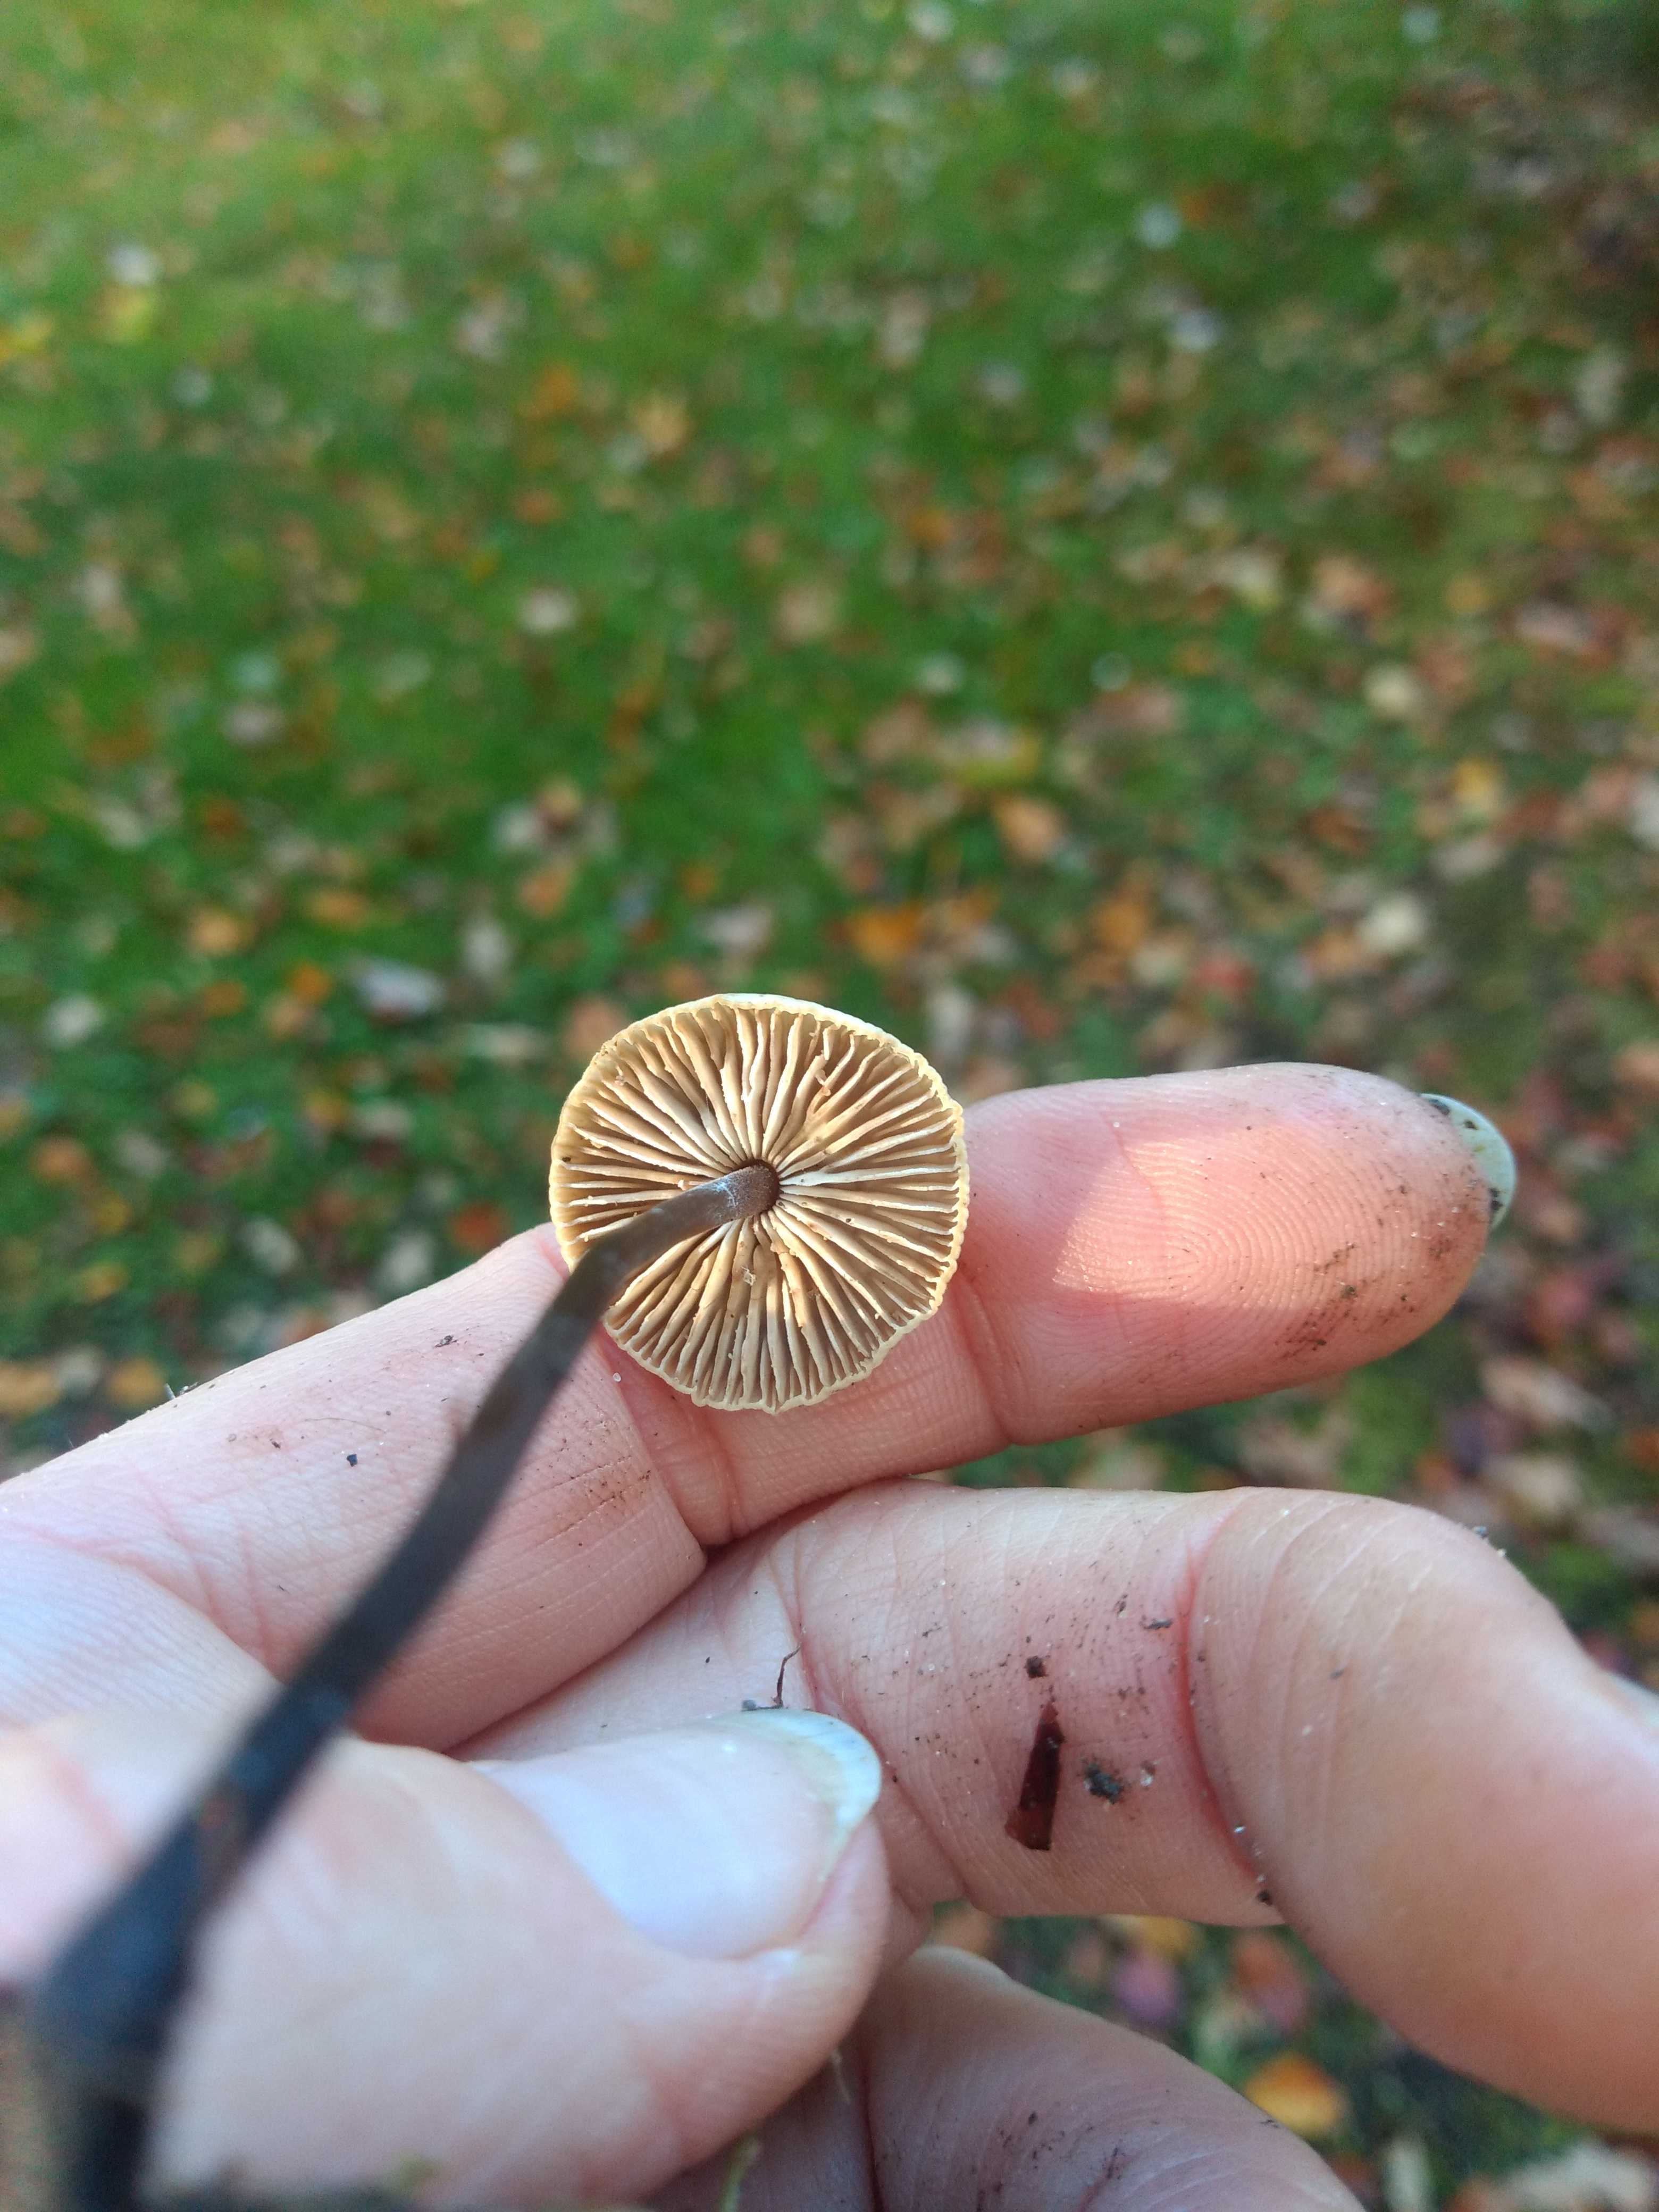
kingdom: Fungi
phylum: Basidiomycota
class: Agaricomycetes
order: Agaricales
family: Omphalotaceae
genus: Mycetinis
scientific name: Mycetinis alliaceus
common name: stor løghat
